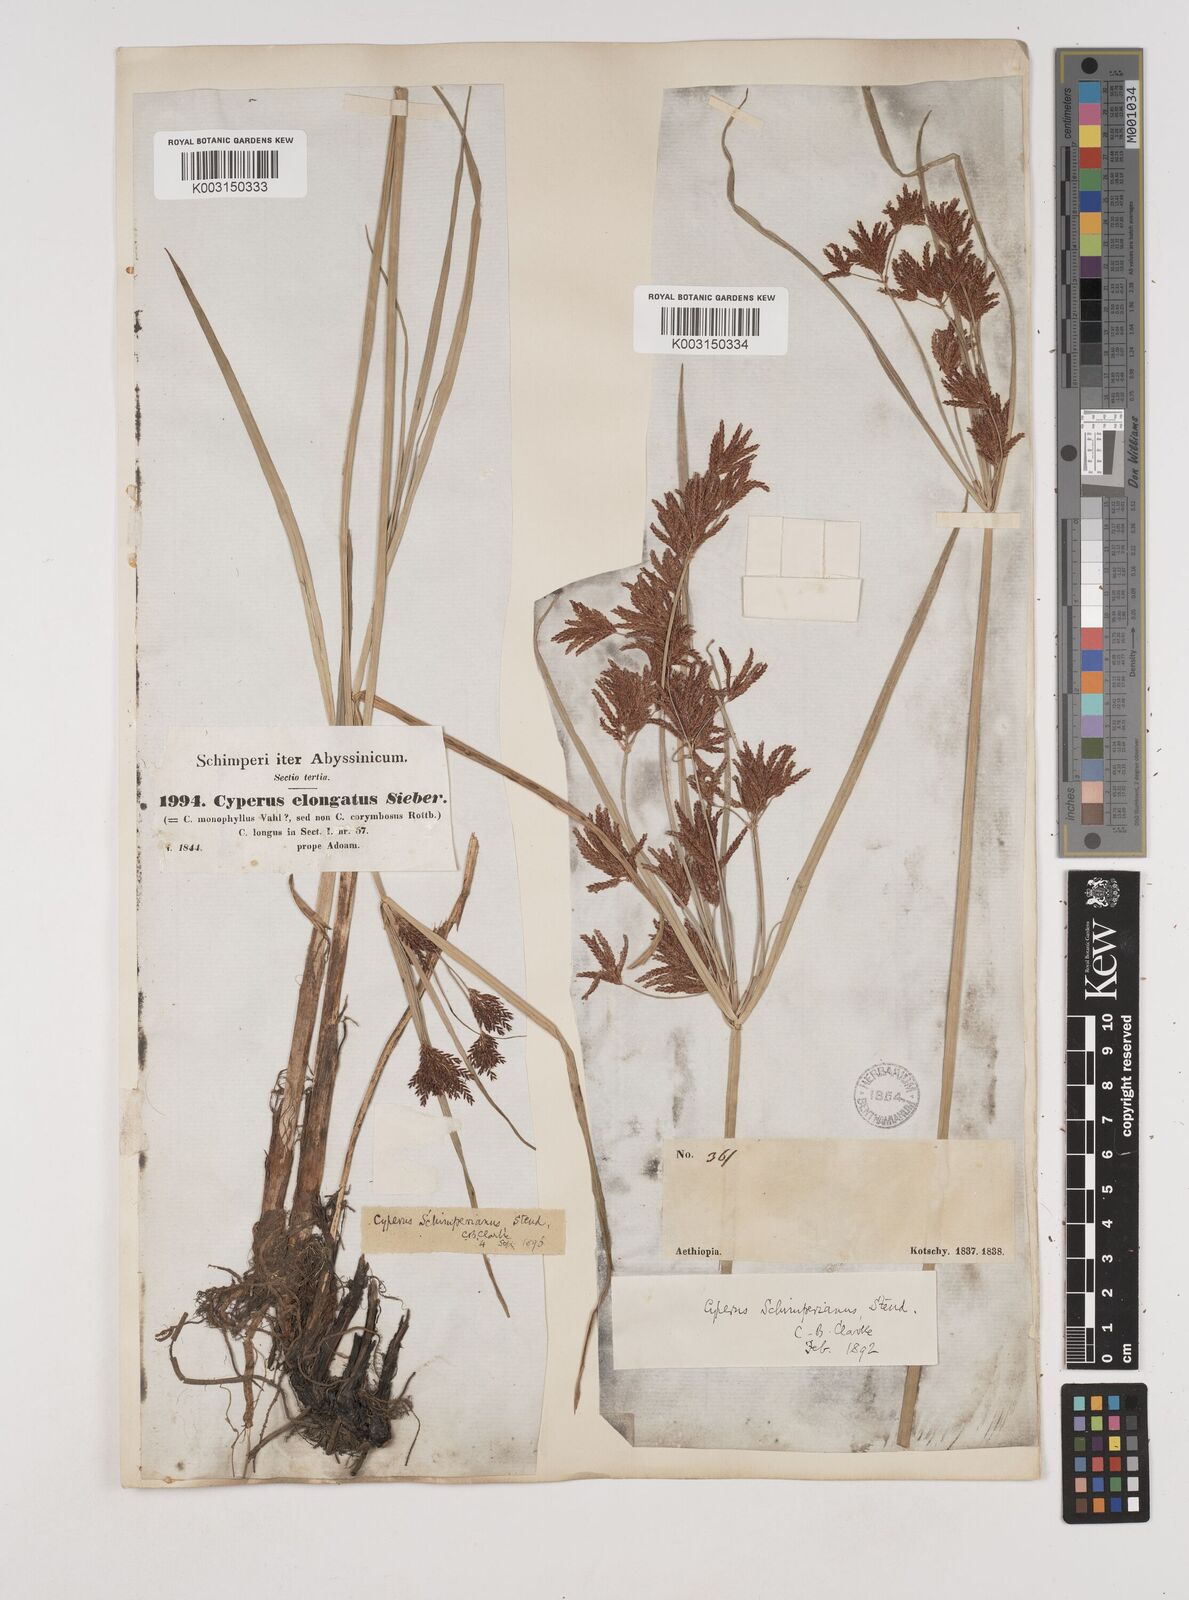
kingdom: Plantae
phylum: Tracheophyta
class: Liliopsida
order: Poales
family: Cyperaceae
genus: Cyperus
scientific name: Cyperus schimperianus
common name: Schimper flatsedge
